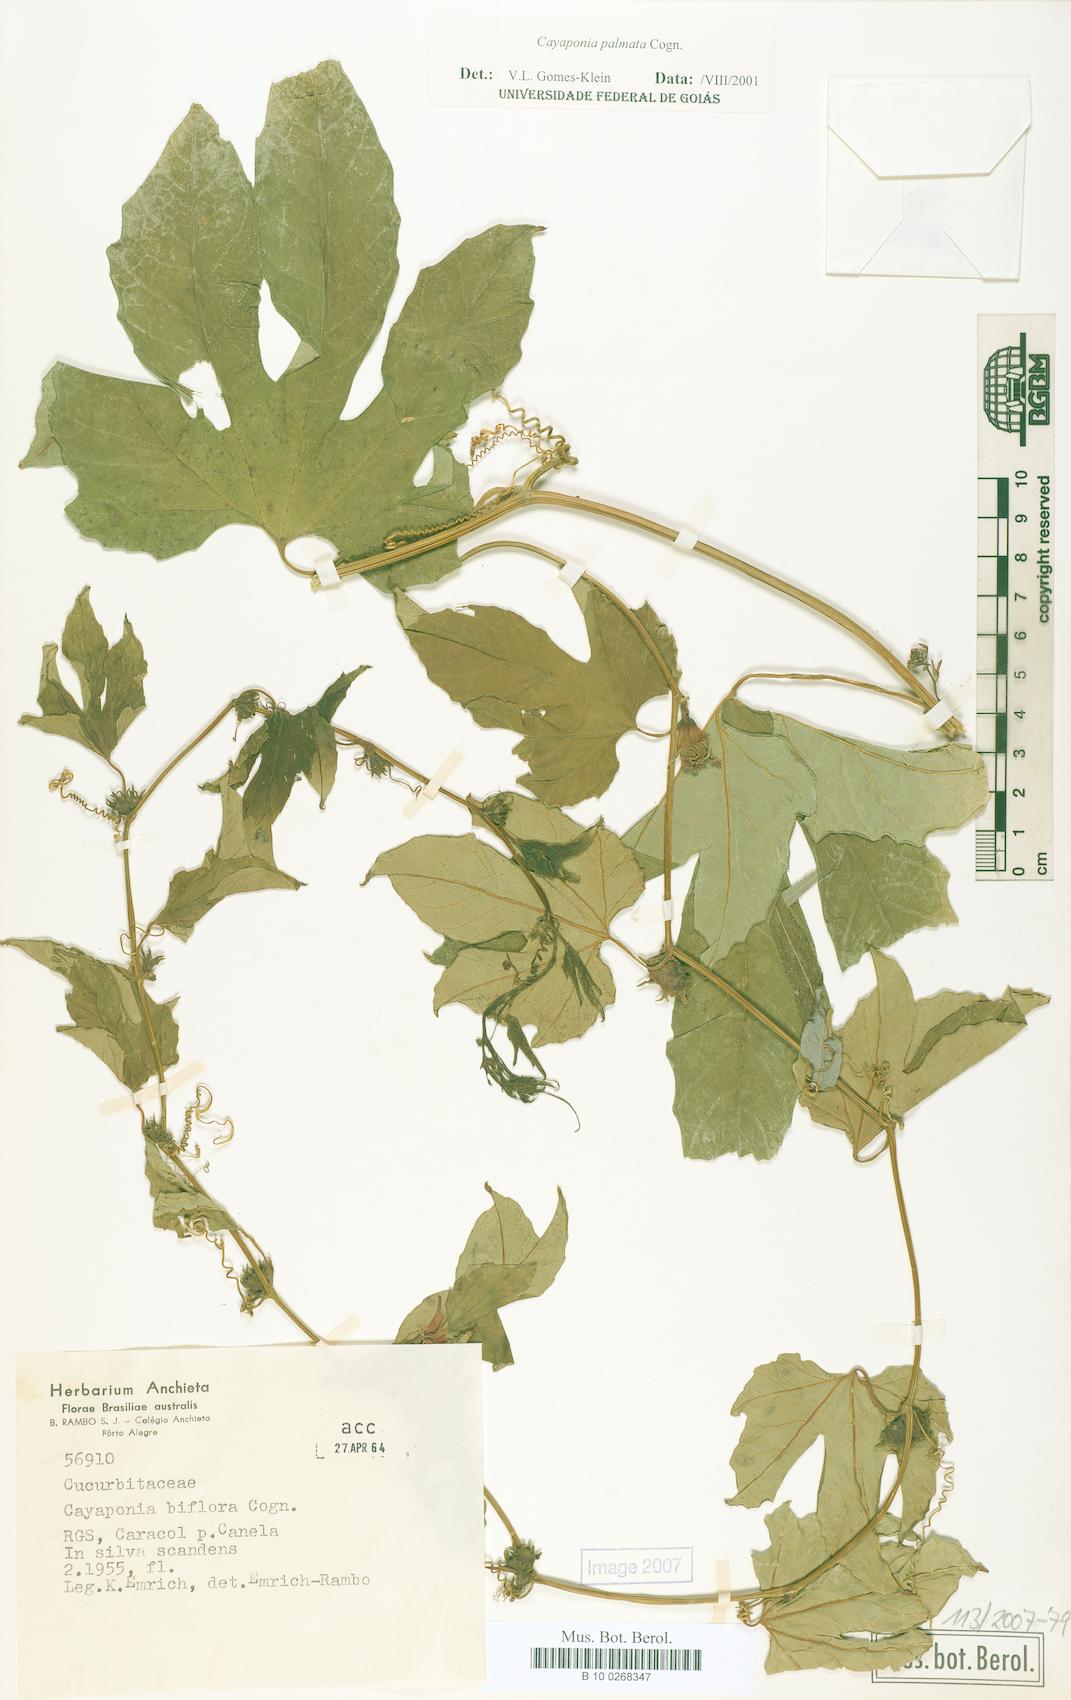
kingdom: Plantae
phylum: Tracheophyta
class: Magnoliopsida
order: Cucurbitales
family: Cucurbitaceae
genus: Cayaponia
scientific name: Cayaponia palmata
